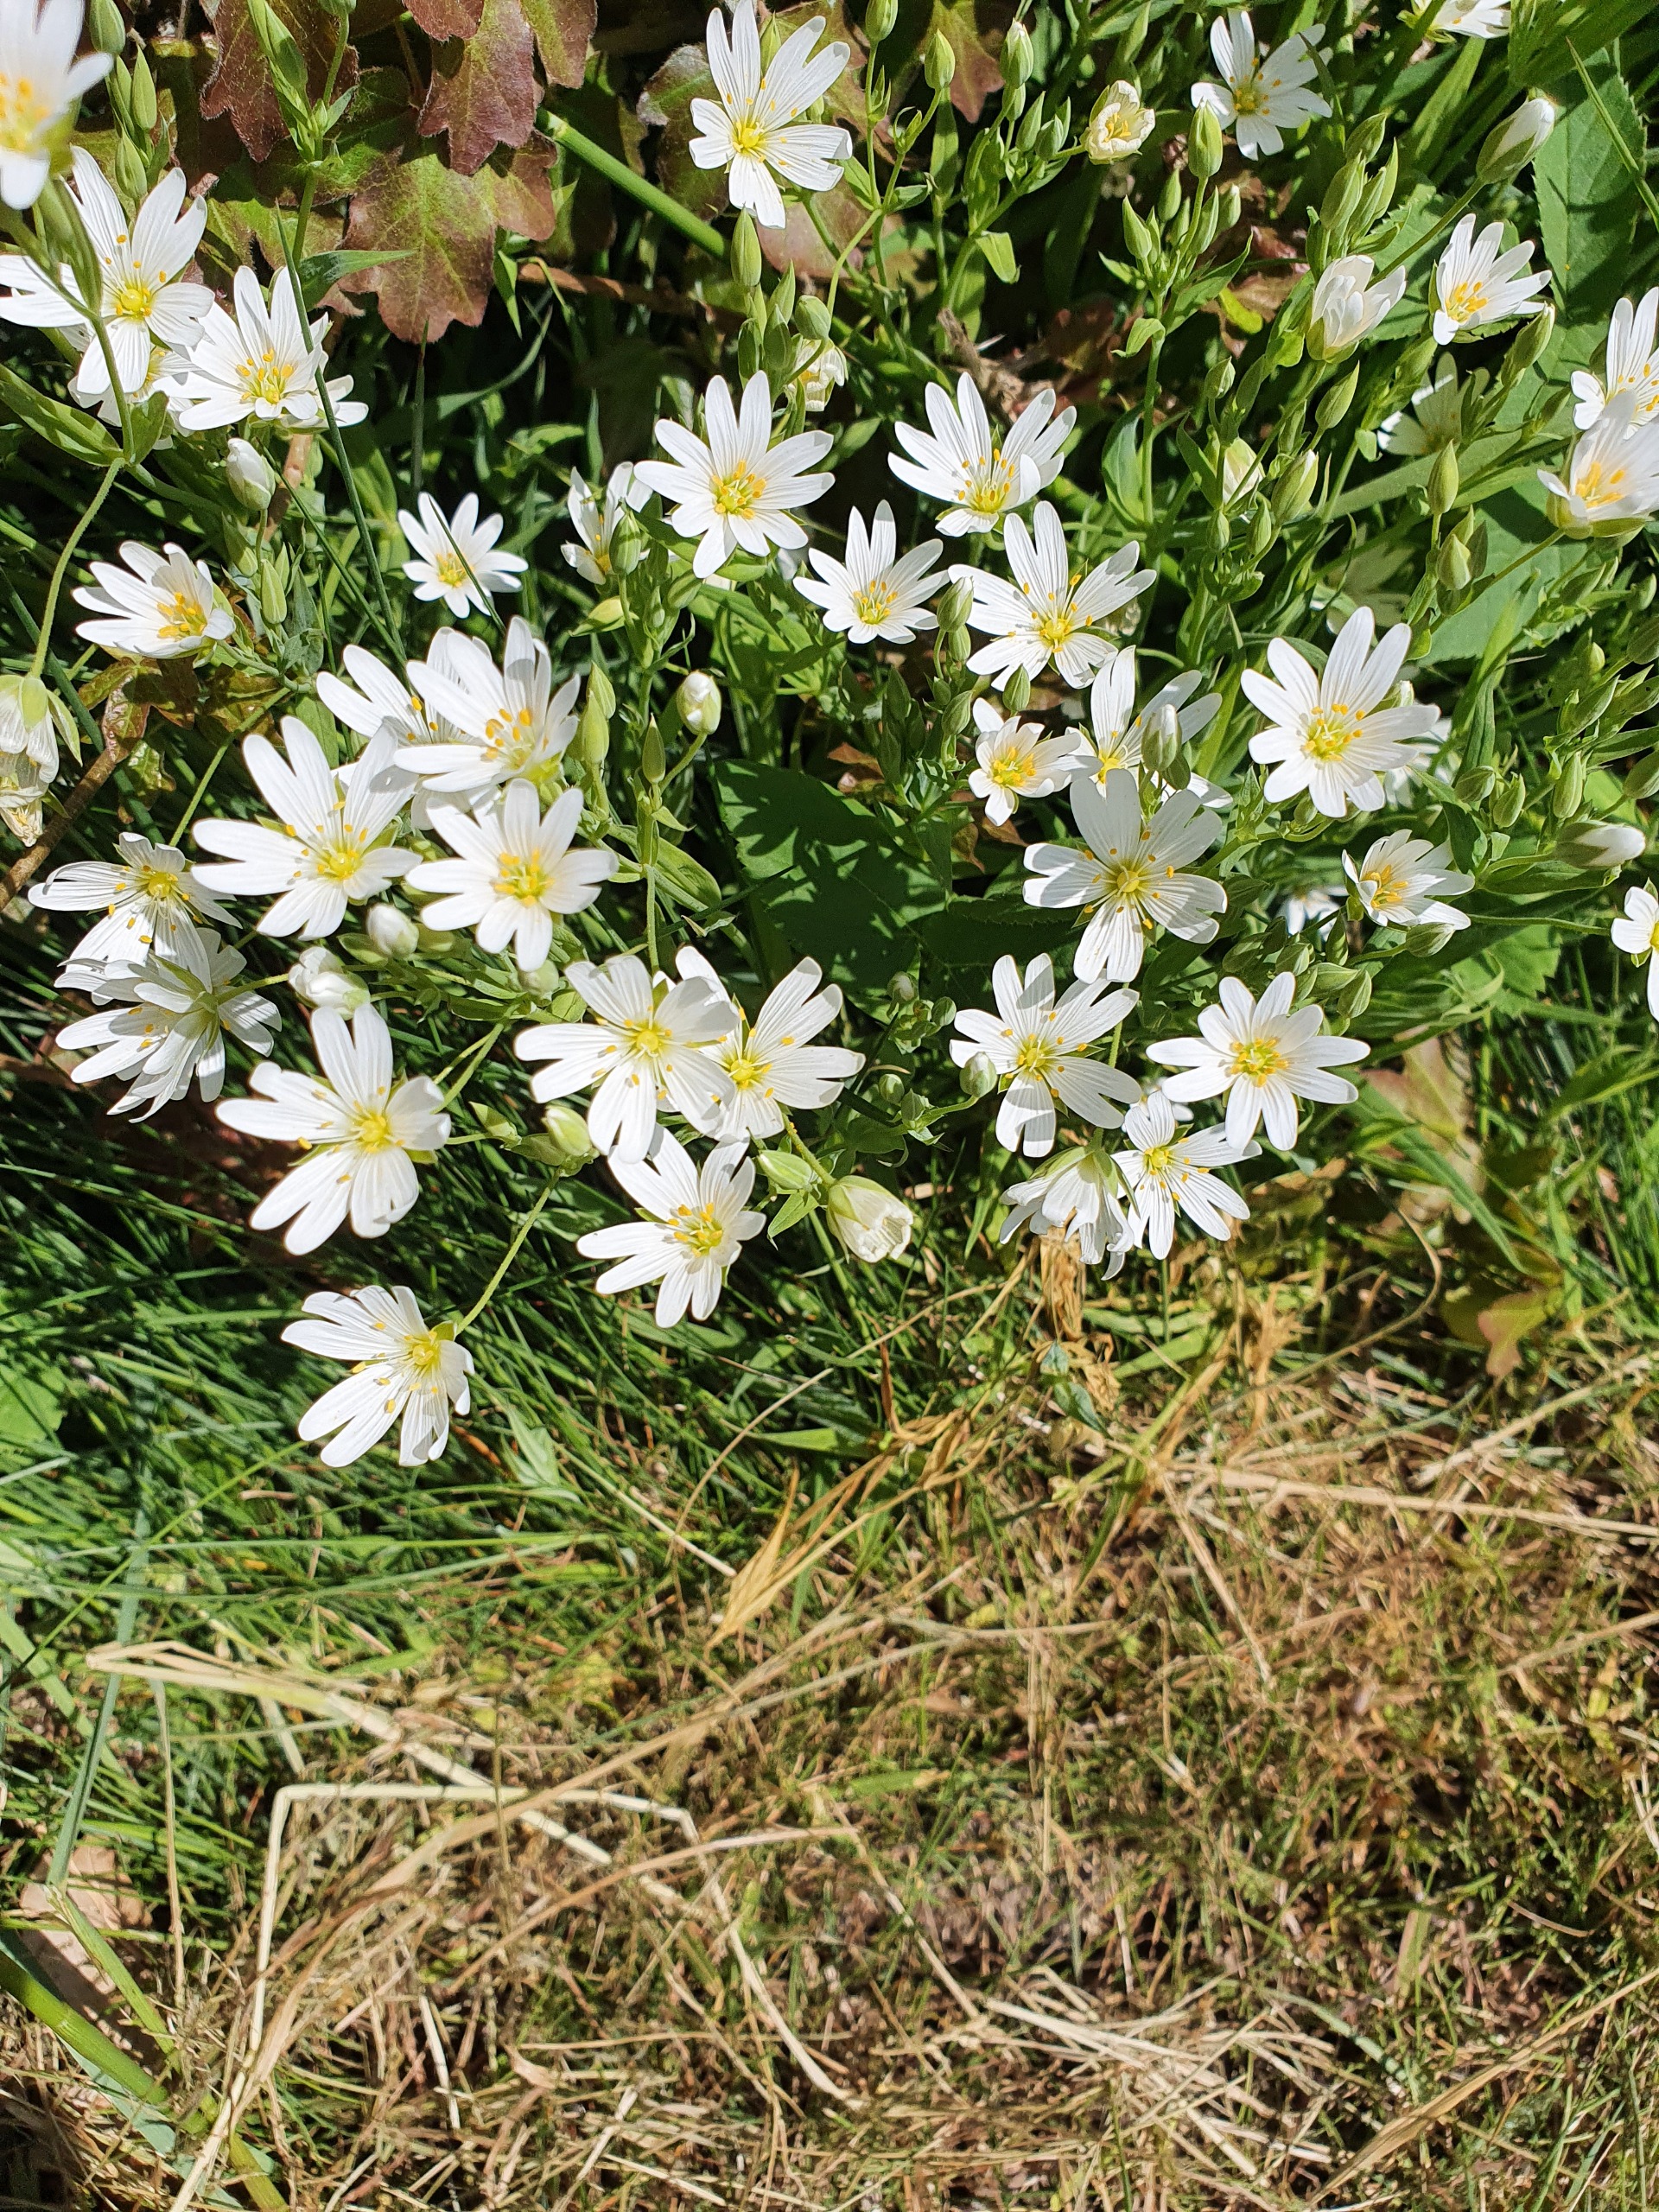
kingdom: Plantae
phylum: Tracheophyta
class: Magnoliopsida
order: Caryophyllales
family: Caryophyllaceae
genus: Rabelera
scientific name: Rabelera holostea
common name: Stor fladstjerne
